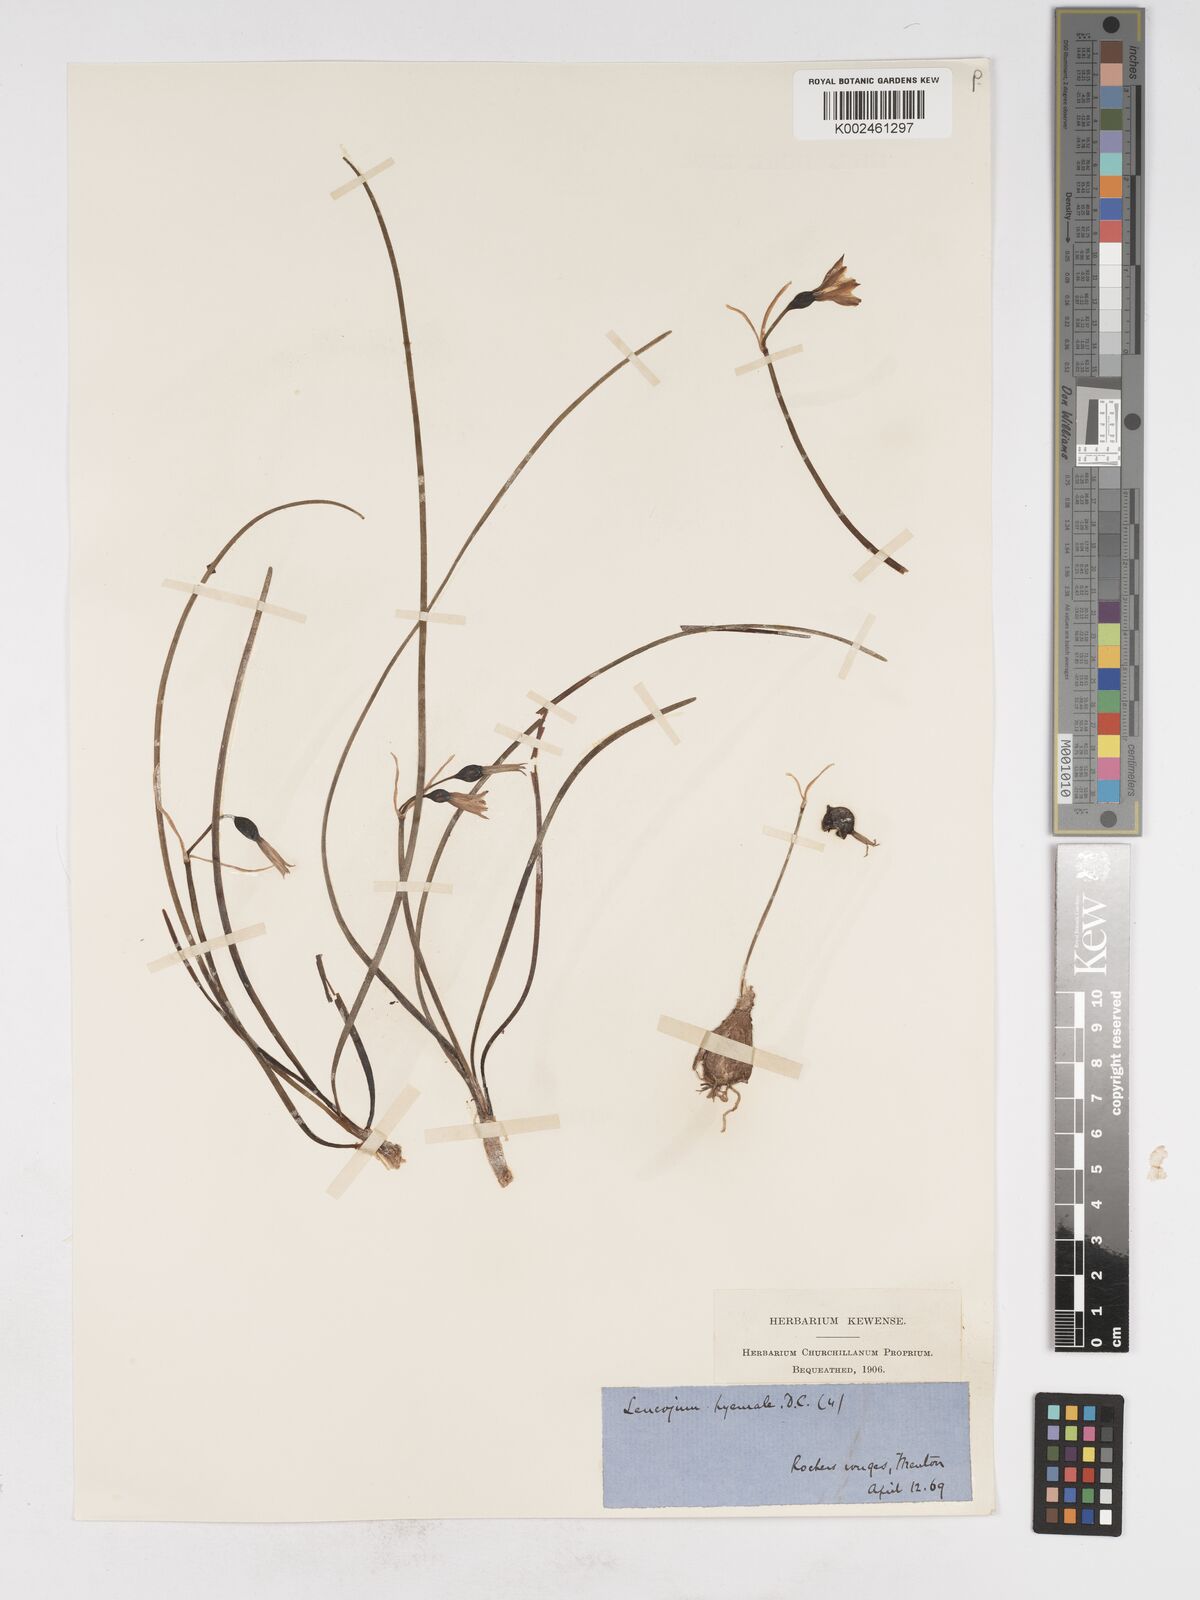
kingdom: Plantae
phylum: Tracheophyta
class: Liliopsida
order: Asparagales
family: Amaryllidaceae
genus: Acis
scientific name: Acis nicaeensis
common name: French snowflake
